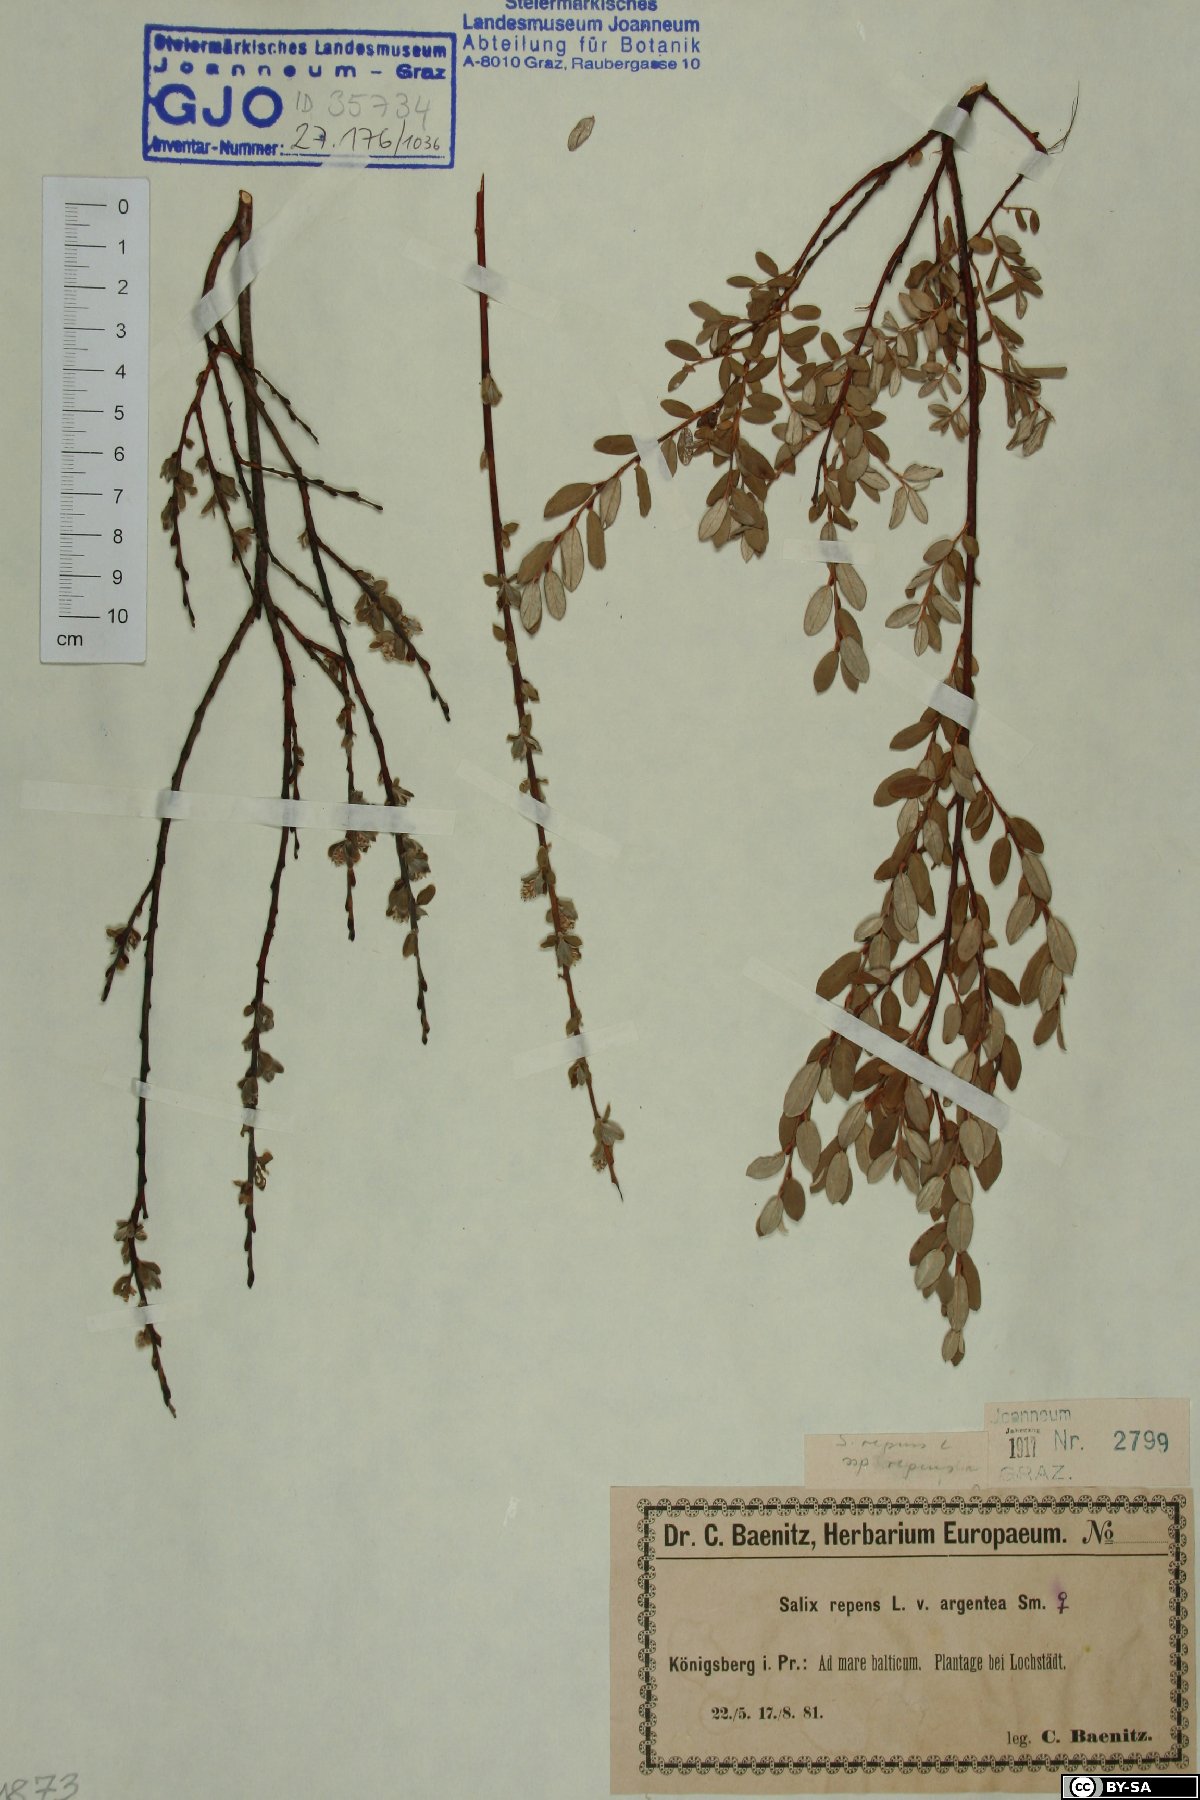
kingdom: Plantae
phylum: Tracheophyta
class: Magnoliopsida
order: Malpighiales
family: Salicaceae
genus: Salix
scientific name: Salix repens
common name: Creeping willow
